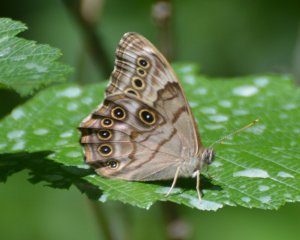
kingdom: Animalia
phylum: Arthropoda
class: Insecta
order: Lepidoptera
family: Nymphalidae
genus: Lethe
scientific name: Lethe anthedon
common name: Northern Pearly-Eye
